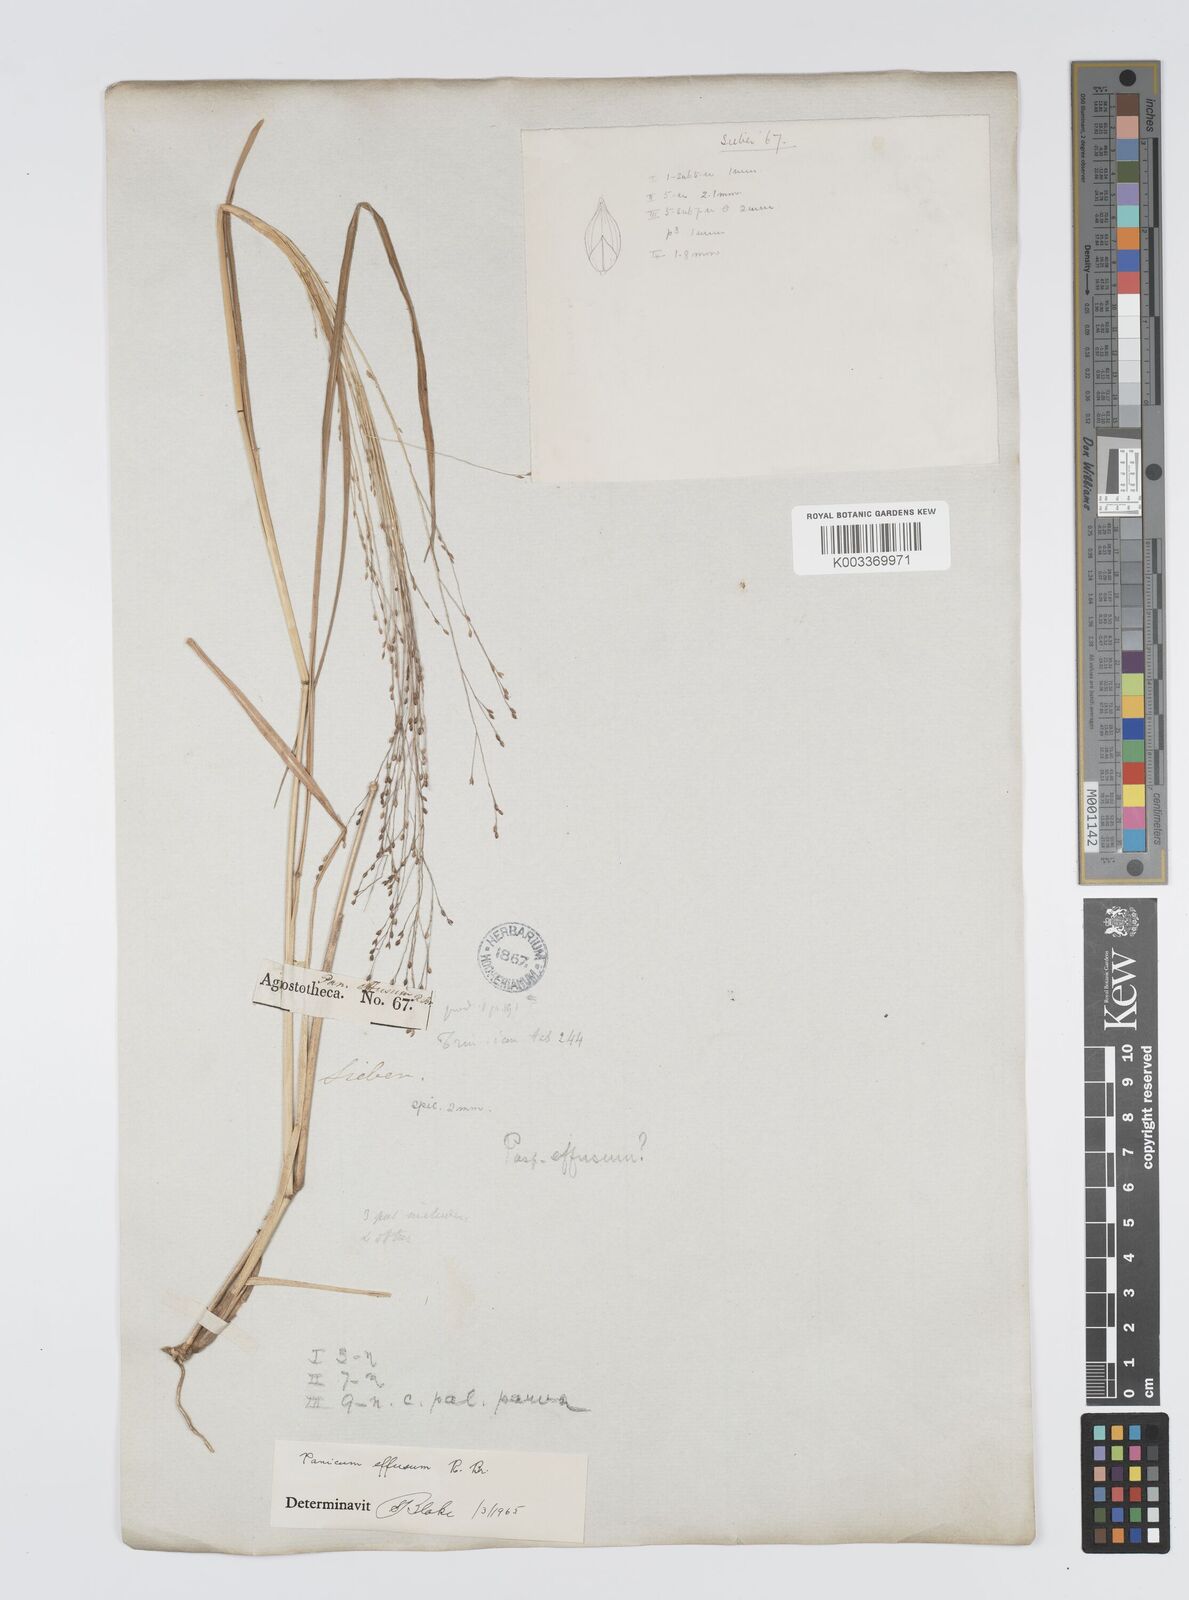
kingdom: Plantae
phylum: Tracheophyta
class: Liliopsida
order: Poales
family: Poaceae
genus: Panicum
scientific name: Panicum effusum
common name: Hairy panic grass
